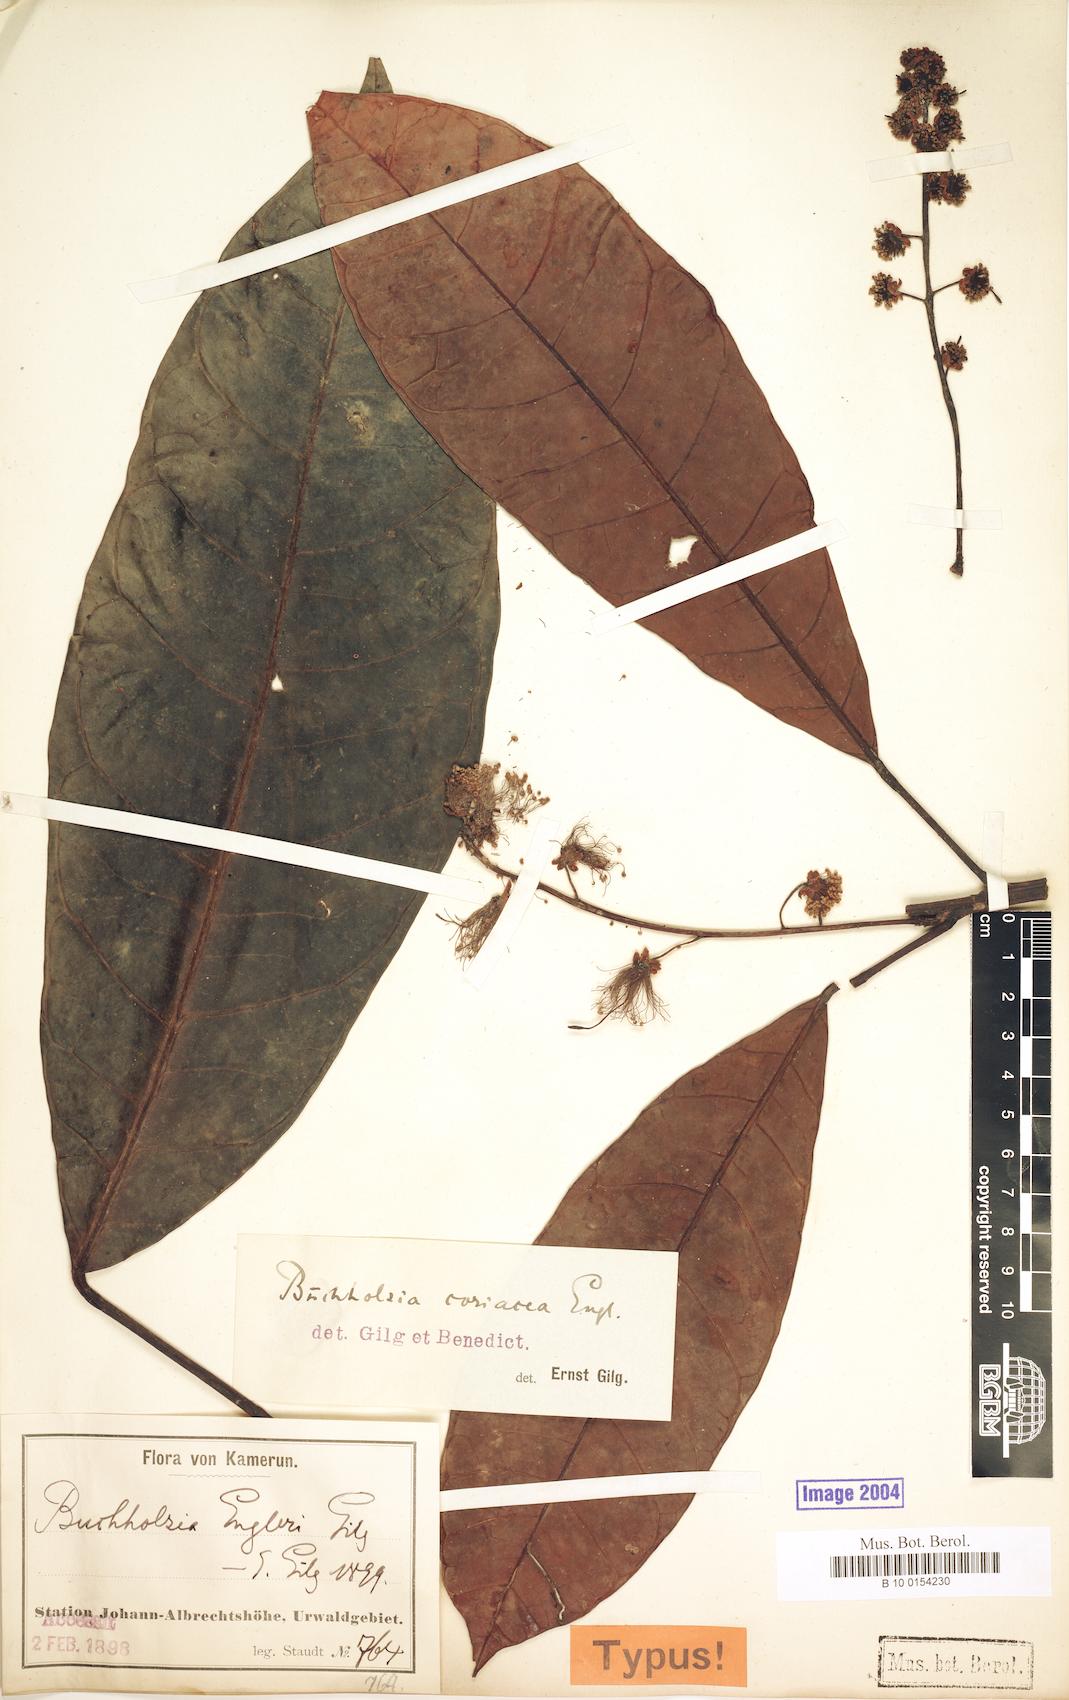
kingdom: Plantae
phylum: Tracheophyta
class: Magnoliopsida
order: Brassicales
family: Capparaceae
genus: Buchholzia
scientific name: Buchholzia coriacea
